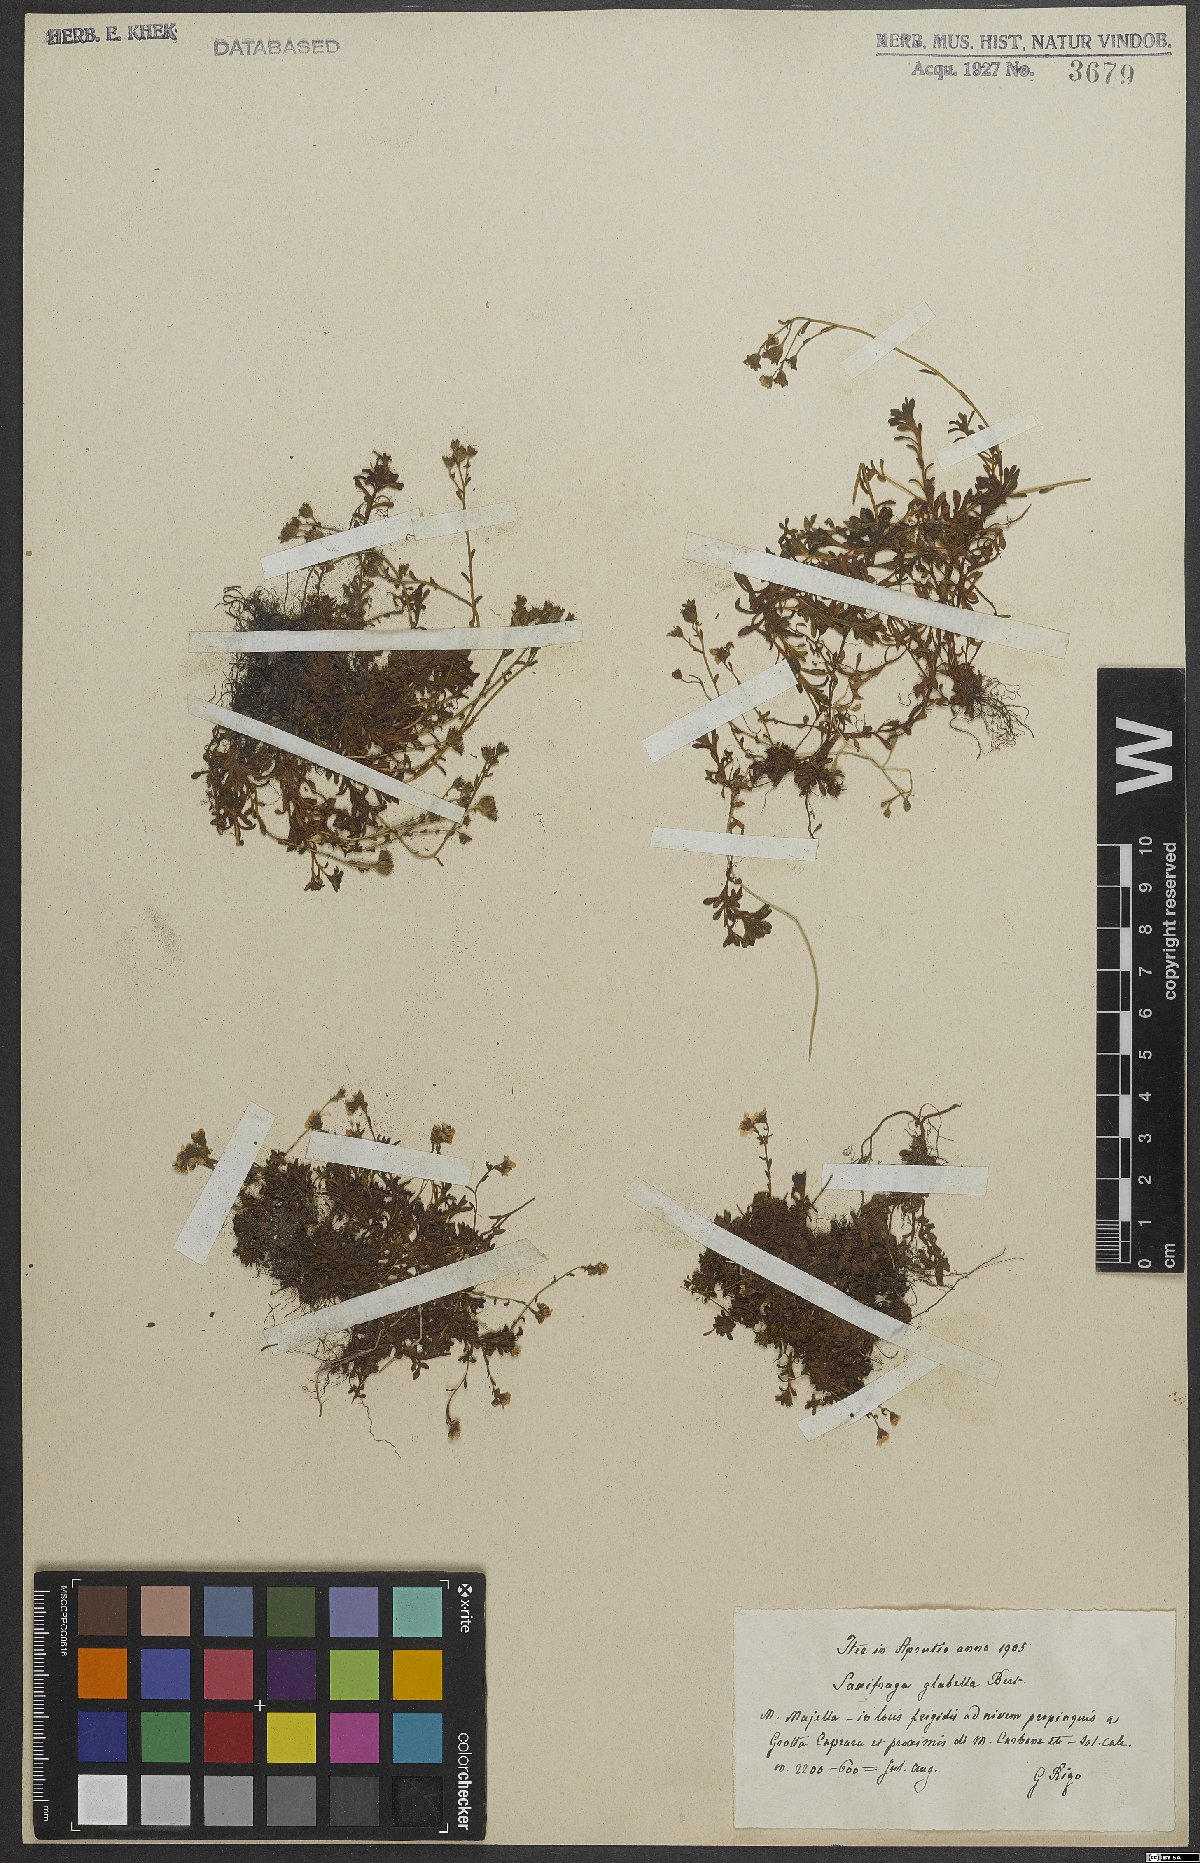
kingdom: Plantae
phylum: Tracheophyta
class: Magnoliopsida
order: Saxifragales
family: Saxifragaceae
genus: Saxifraga
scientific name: Saxifraga glabella
